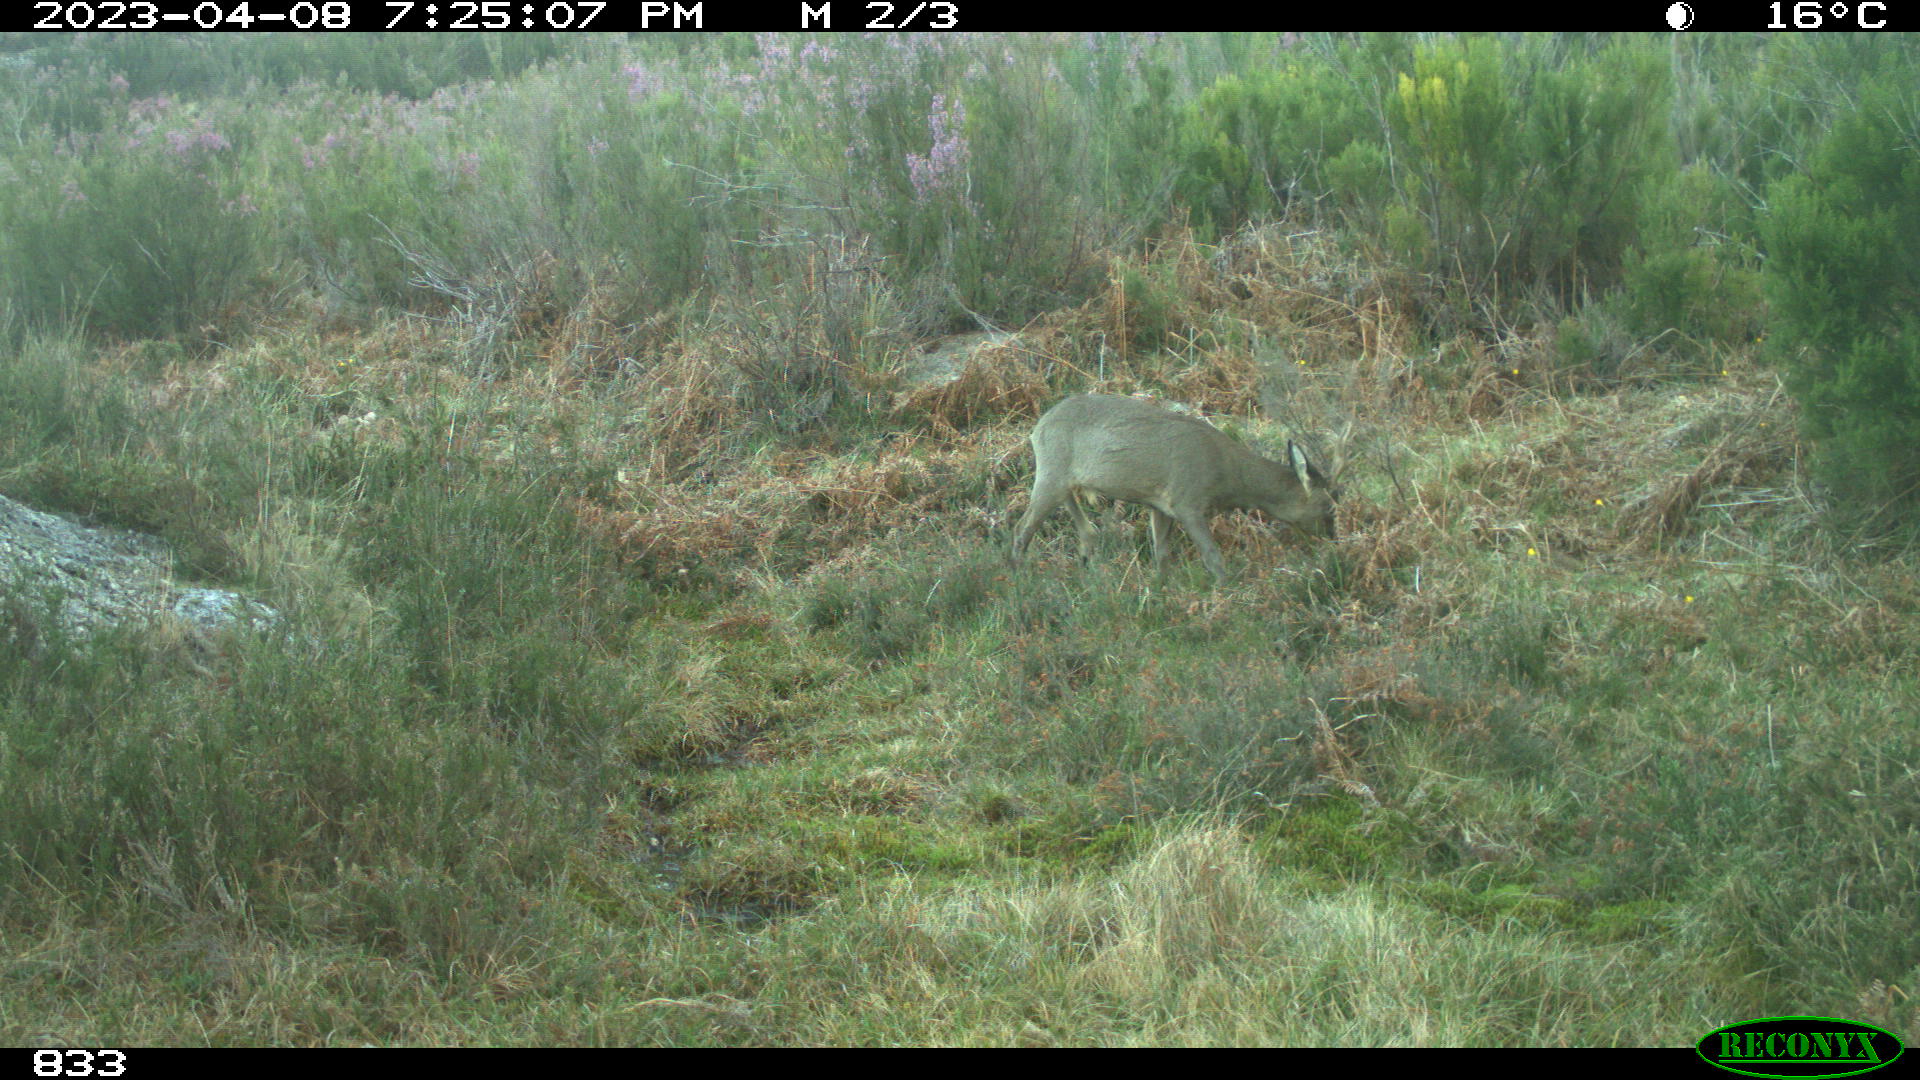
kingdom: Animalia
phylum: Chordata
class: Mammalia
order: Artiodactyla
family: Cervidae
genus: Capreolus
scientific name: Capreolus capreolus
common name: Western roe deer
